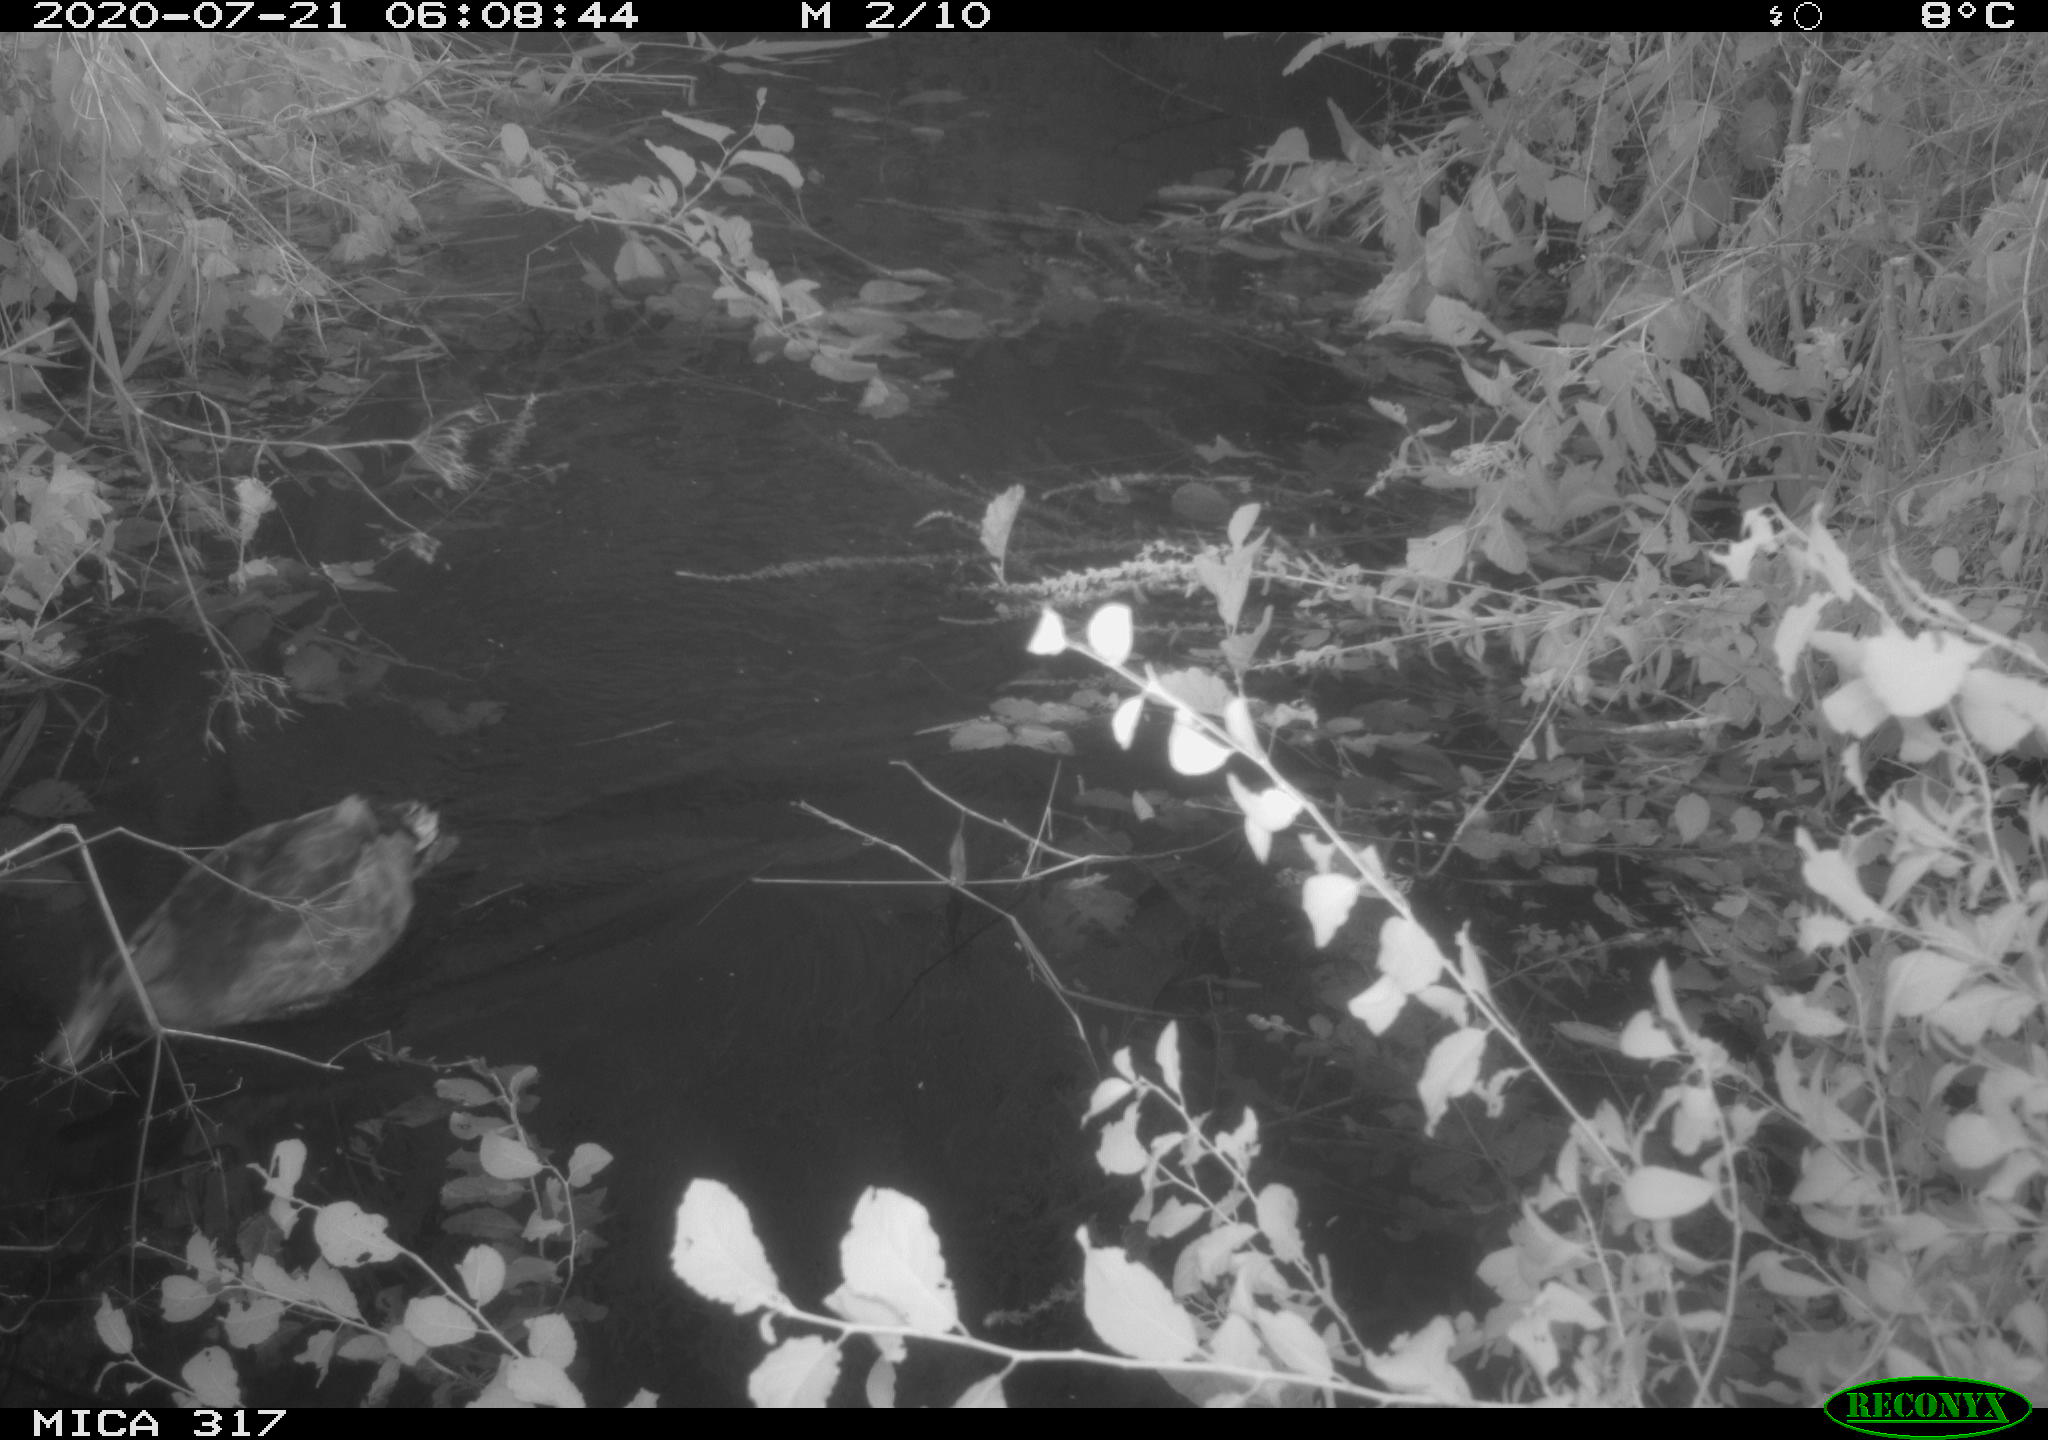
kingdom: Animalia
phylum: Chordata
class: Aves
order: Gruiformes
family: Rallidae
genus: Fulica
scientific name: Fulica atra
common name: Eurasian coot
